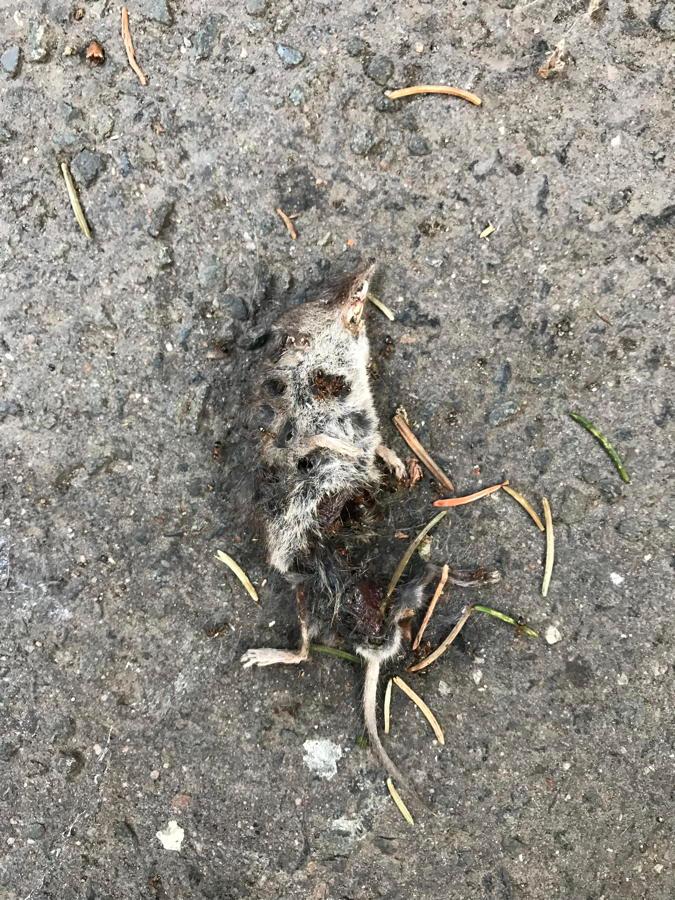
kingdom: Animalia
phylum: Chordata
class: Mammalia
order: Soricomorpha
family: Soricidae
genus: Crocidura
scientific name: Crocidura
